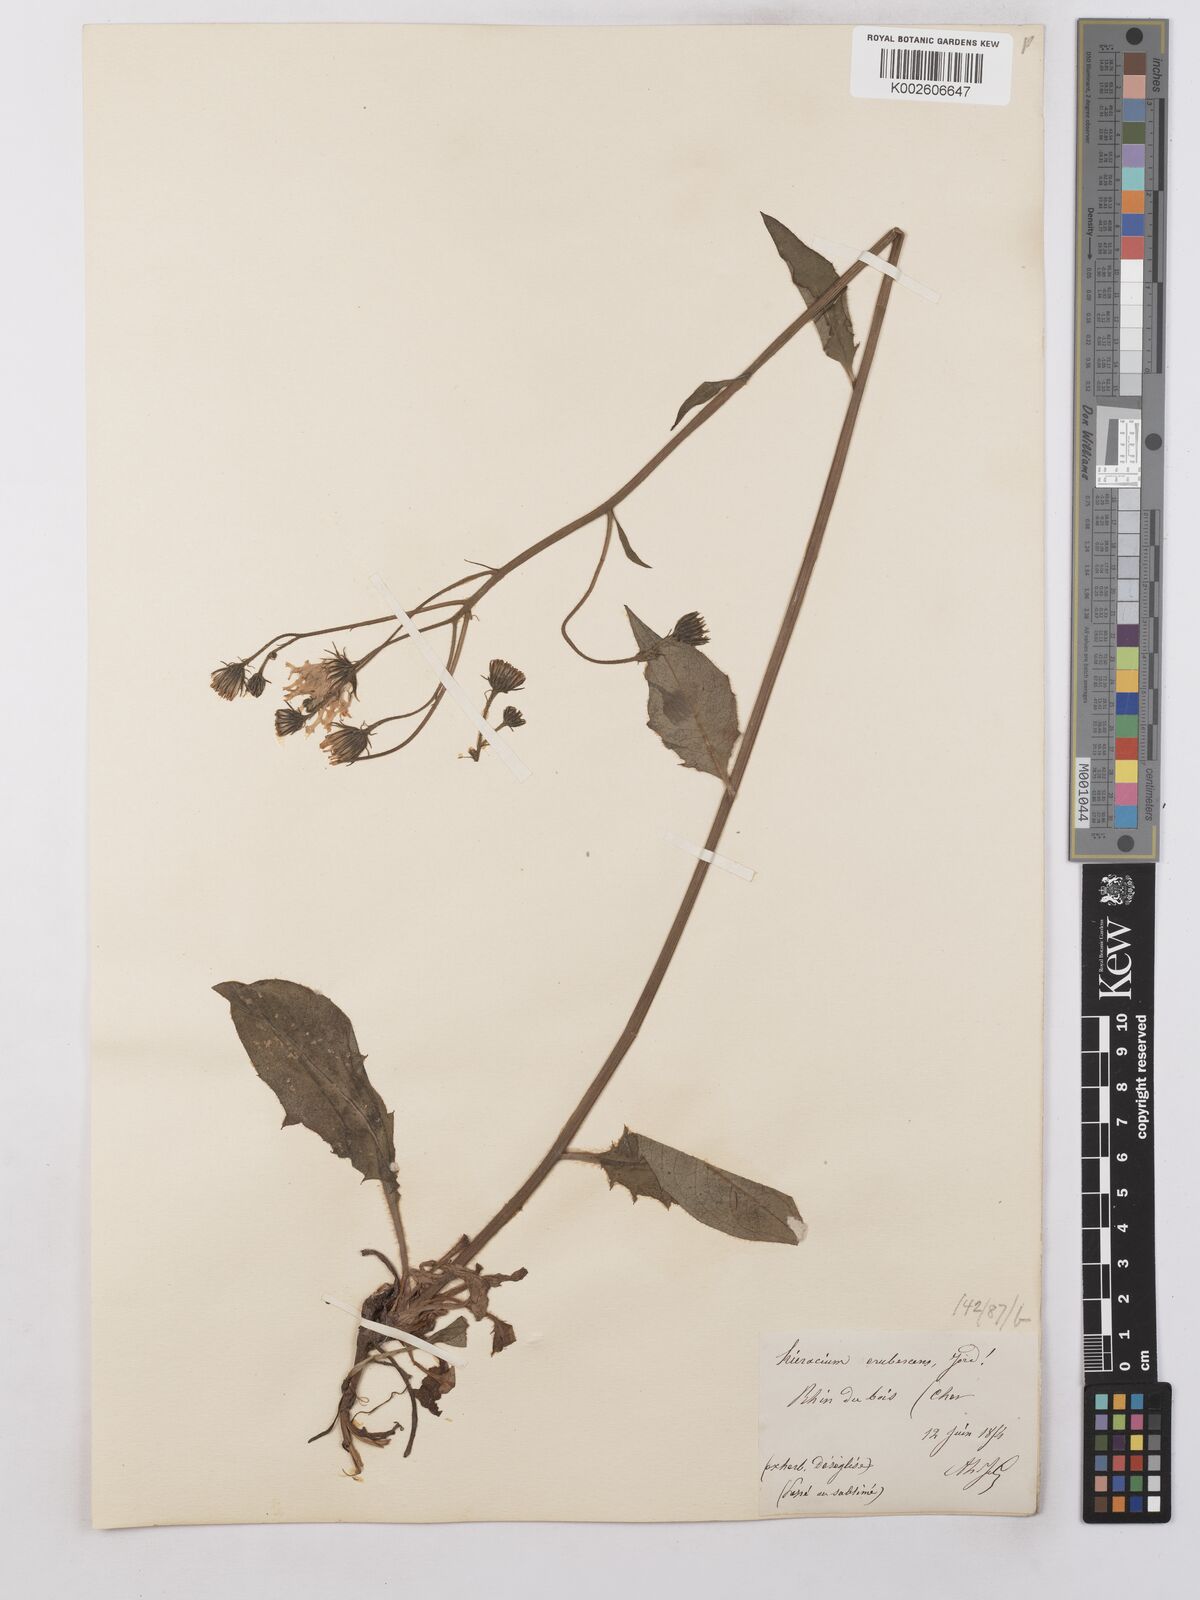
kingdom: Plantae
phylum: Tracheophyta
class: Magnoliopsida
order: Asterales
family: Asteraceae
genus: Hieracium
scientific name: Hieracium lepidulum
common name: Irregular-toothed hawkweed
